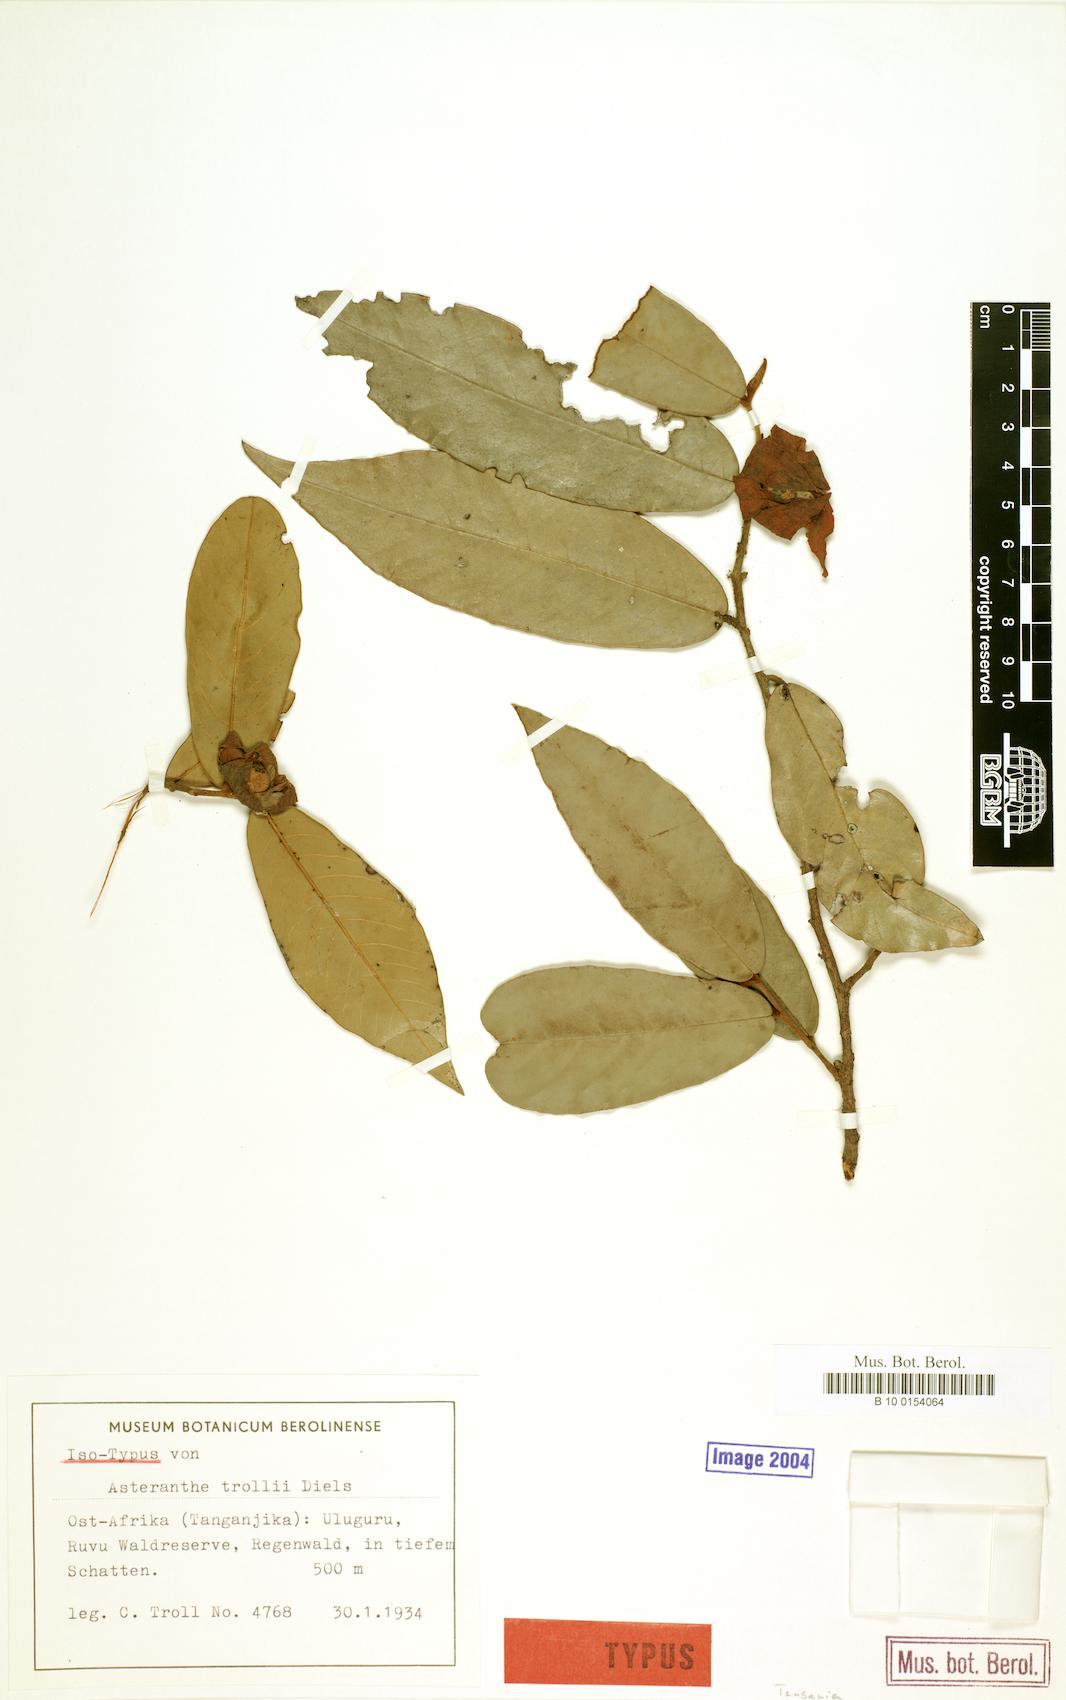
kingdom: Plantae
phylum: Tracheophyta
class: Magnoliopsida
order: Magnoliales
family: Annonaceae
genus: Asteranthe
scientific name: Asteranthe asterias
